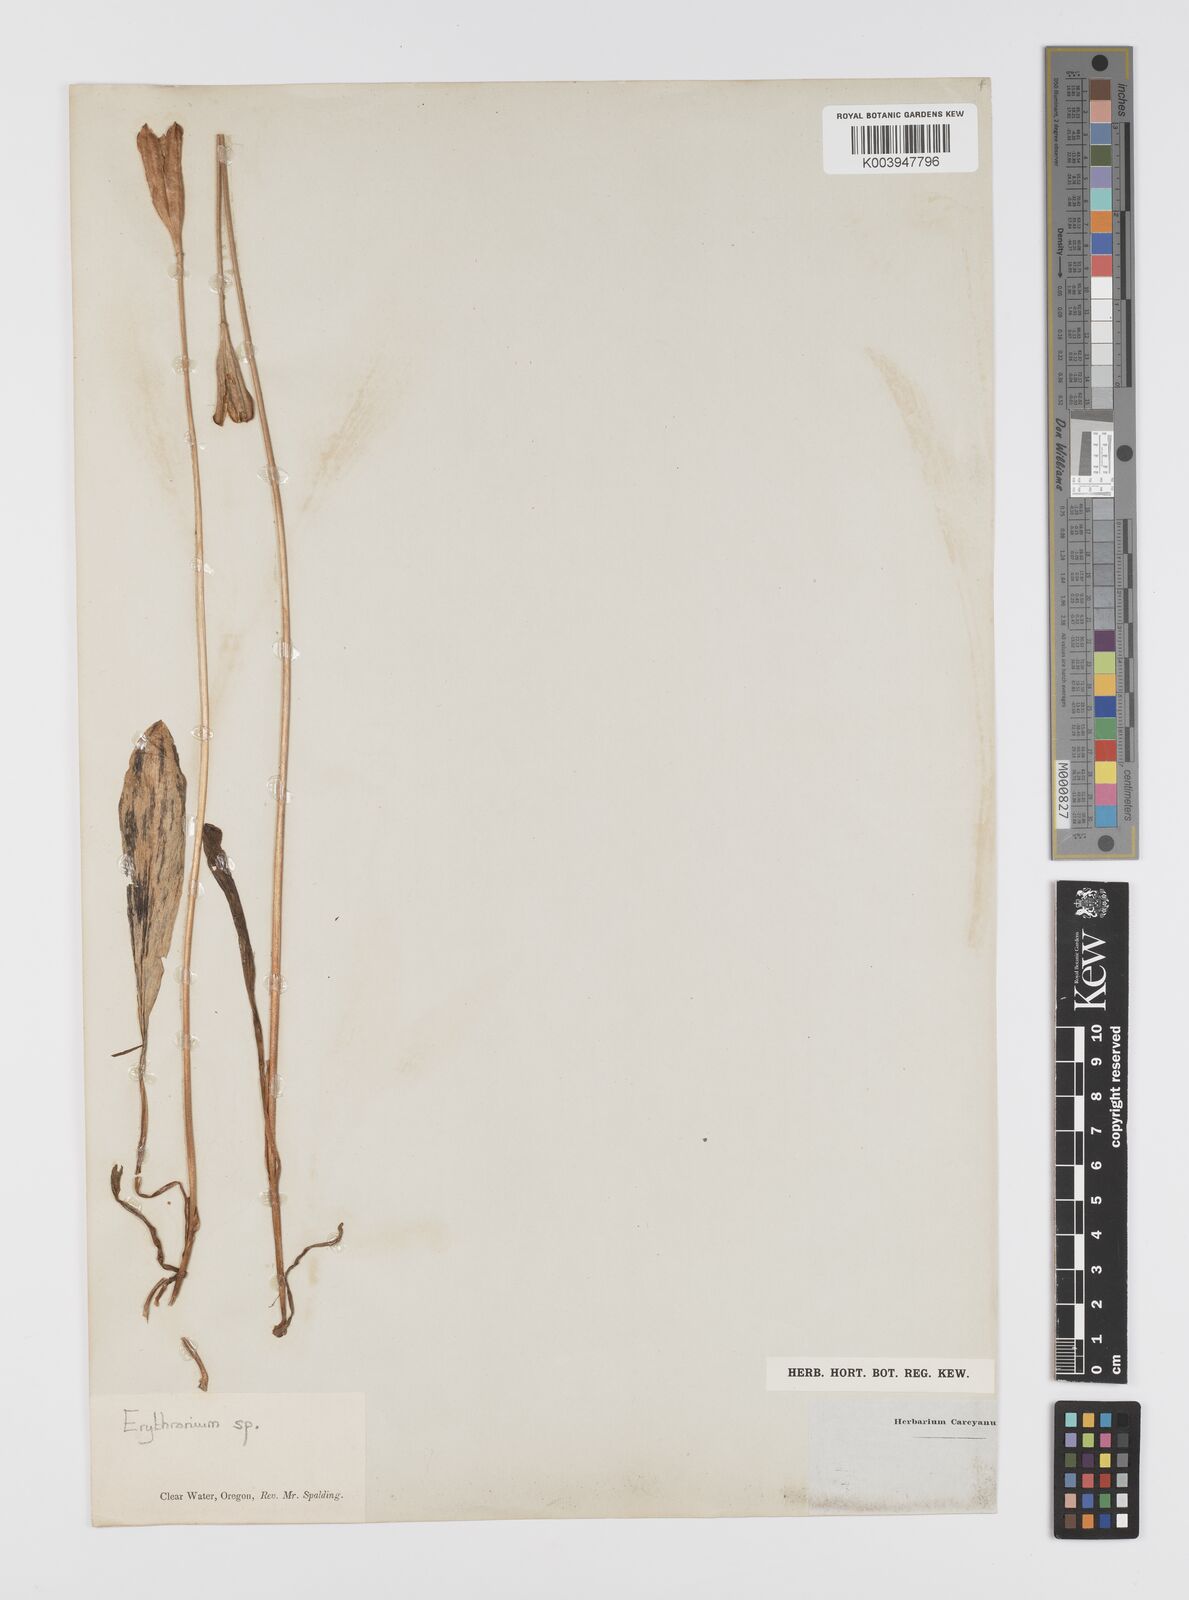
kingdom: Plantae
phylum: Tracheophyta
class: Liliopsida
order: Liliales
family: Liliaceae
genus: Erythronium
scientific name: Erythronium
